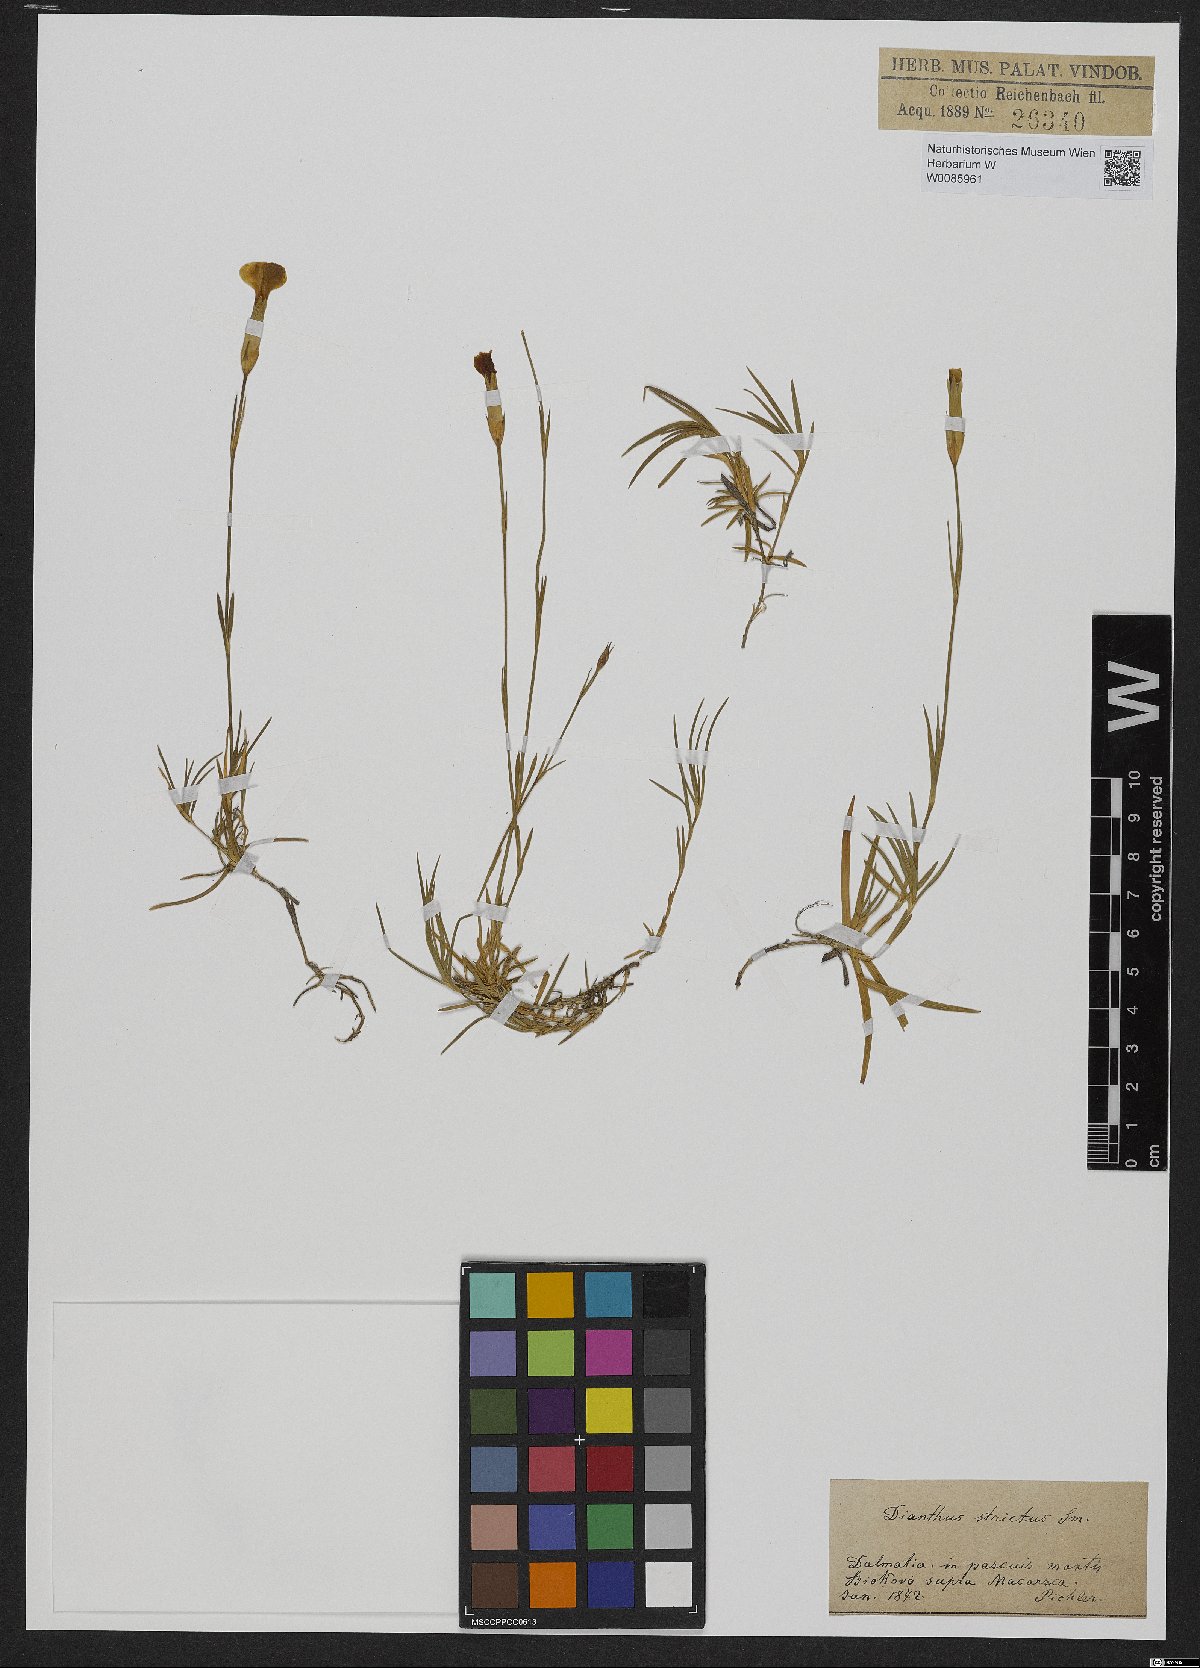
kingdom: Plantae
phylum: Tracheophyta
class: Magnoliopsida
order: Caryophyllales
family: Caryophyllaceae
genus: Dianthus
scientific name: Dianthus petraeus
